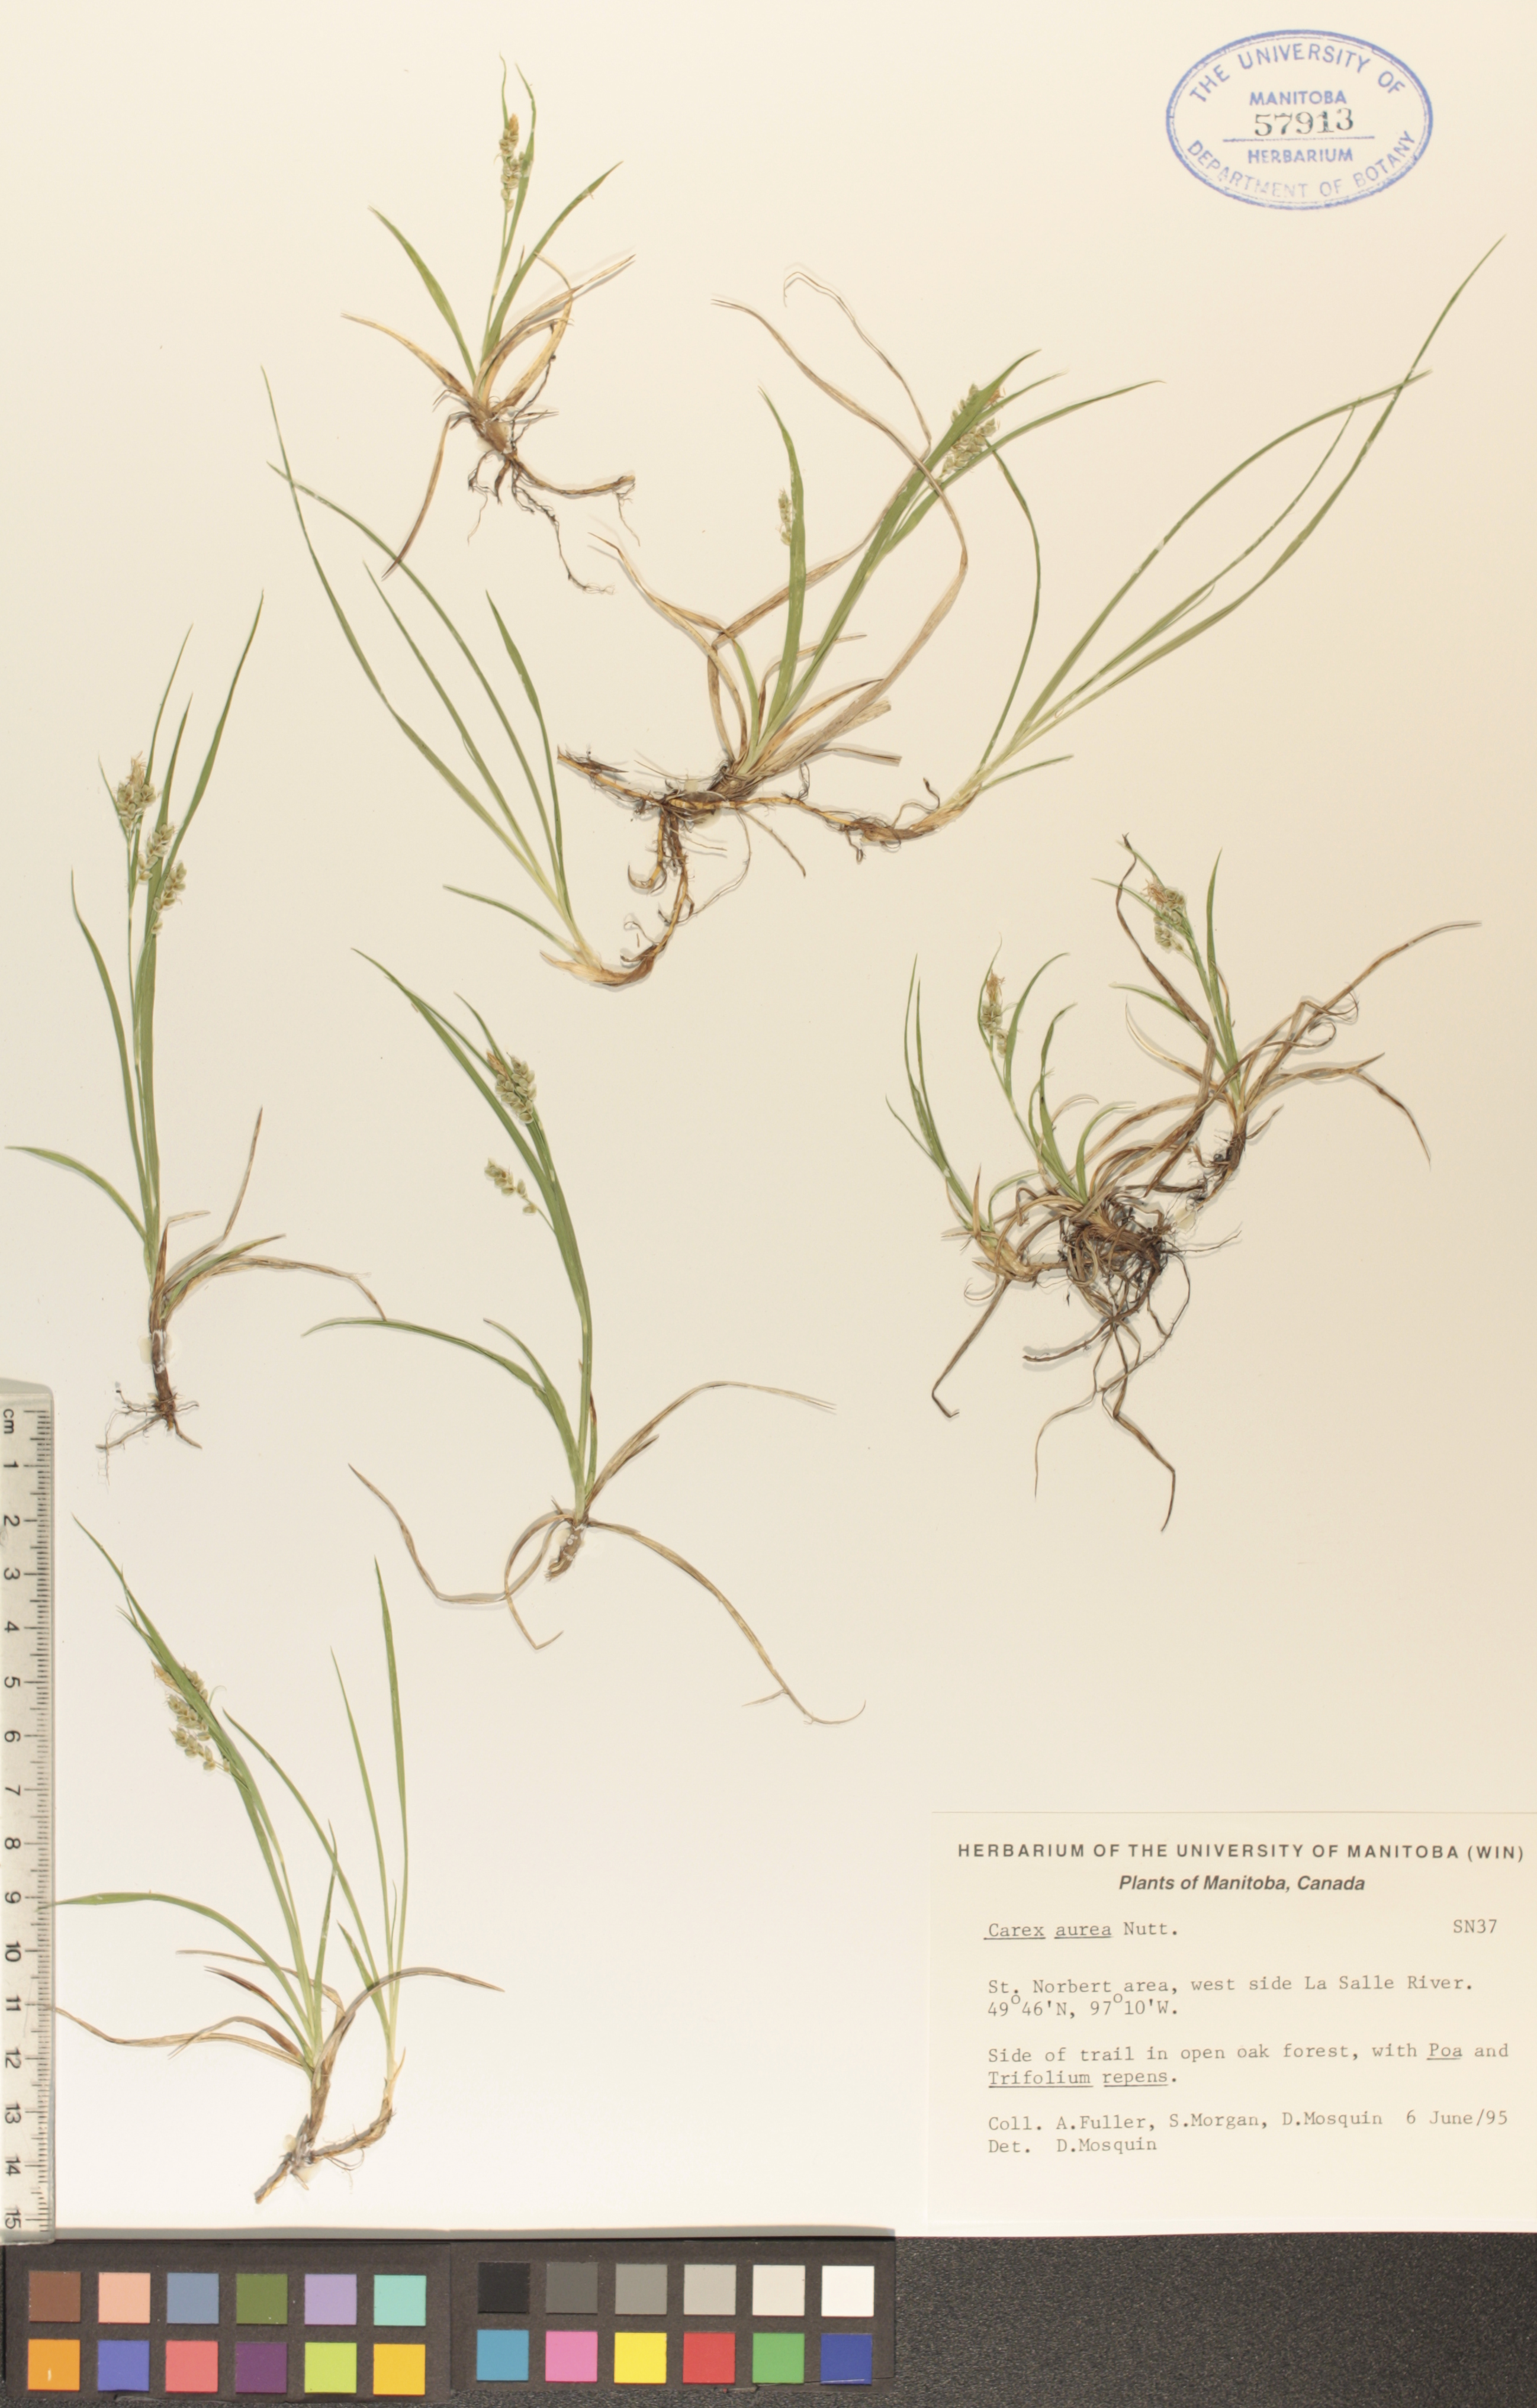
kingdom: Plantae
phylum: Tracheophyta
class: Liliopsida
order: Poales
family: Cyperaceae
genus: Carex
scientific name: Carex aurea
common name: Golden sedge
